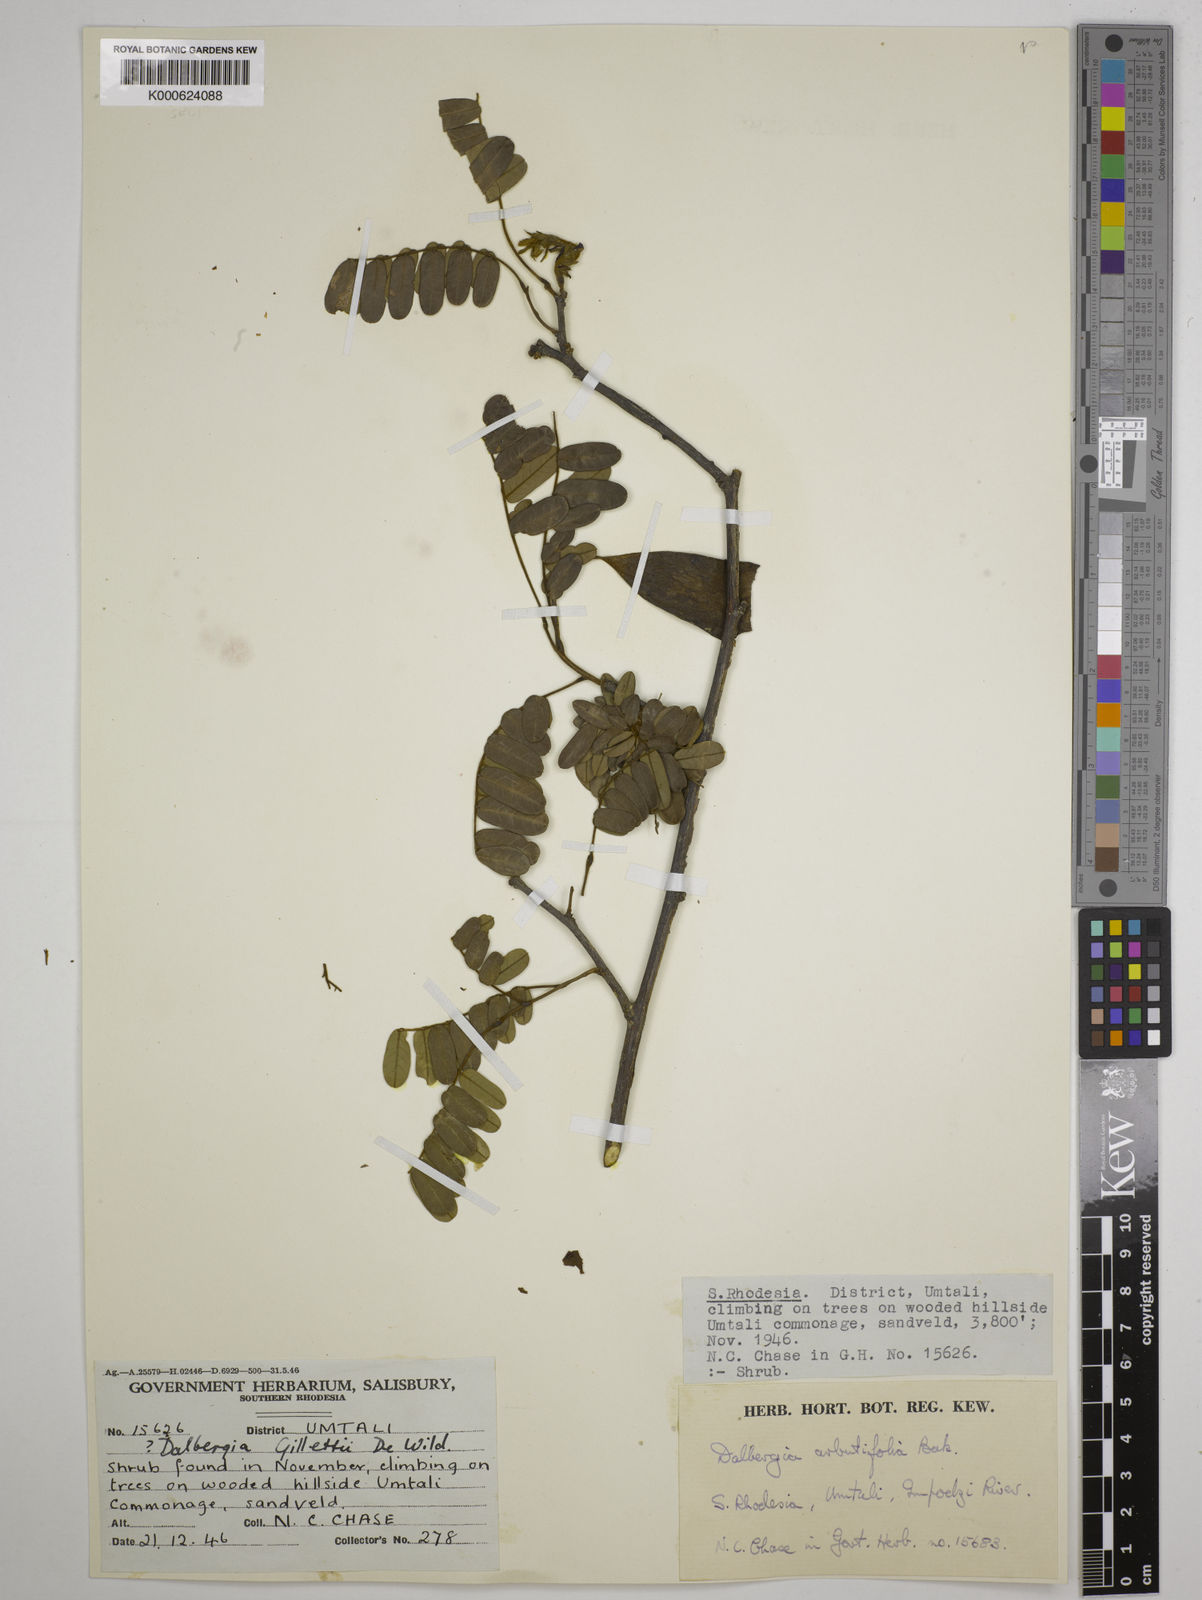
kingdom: Plantae
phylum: Tracheophyta
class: Magnoliopsida
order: Fabales
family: Fabaceae
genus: Dalbergia
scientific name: Dalbergia arbutifolia
